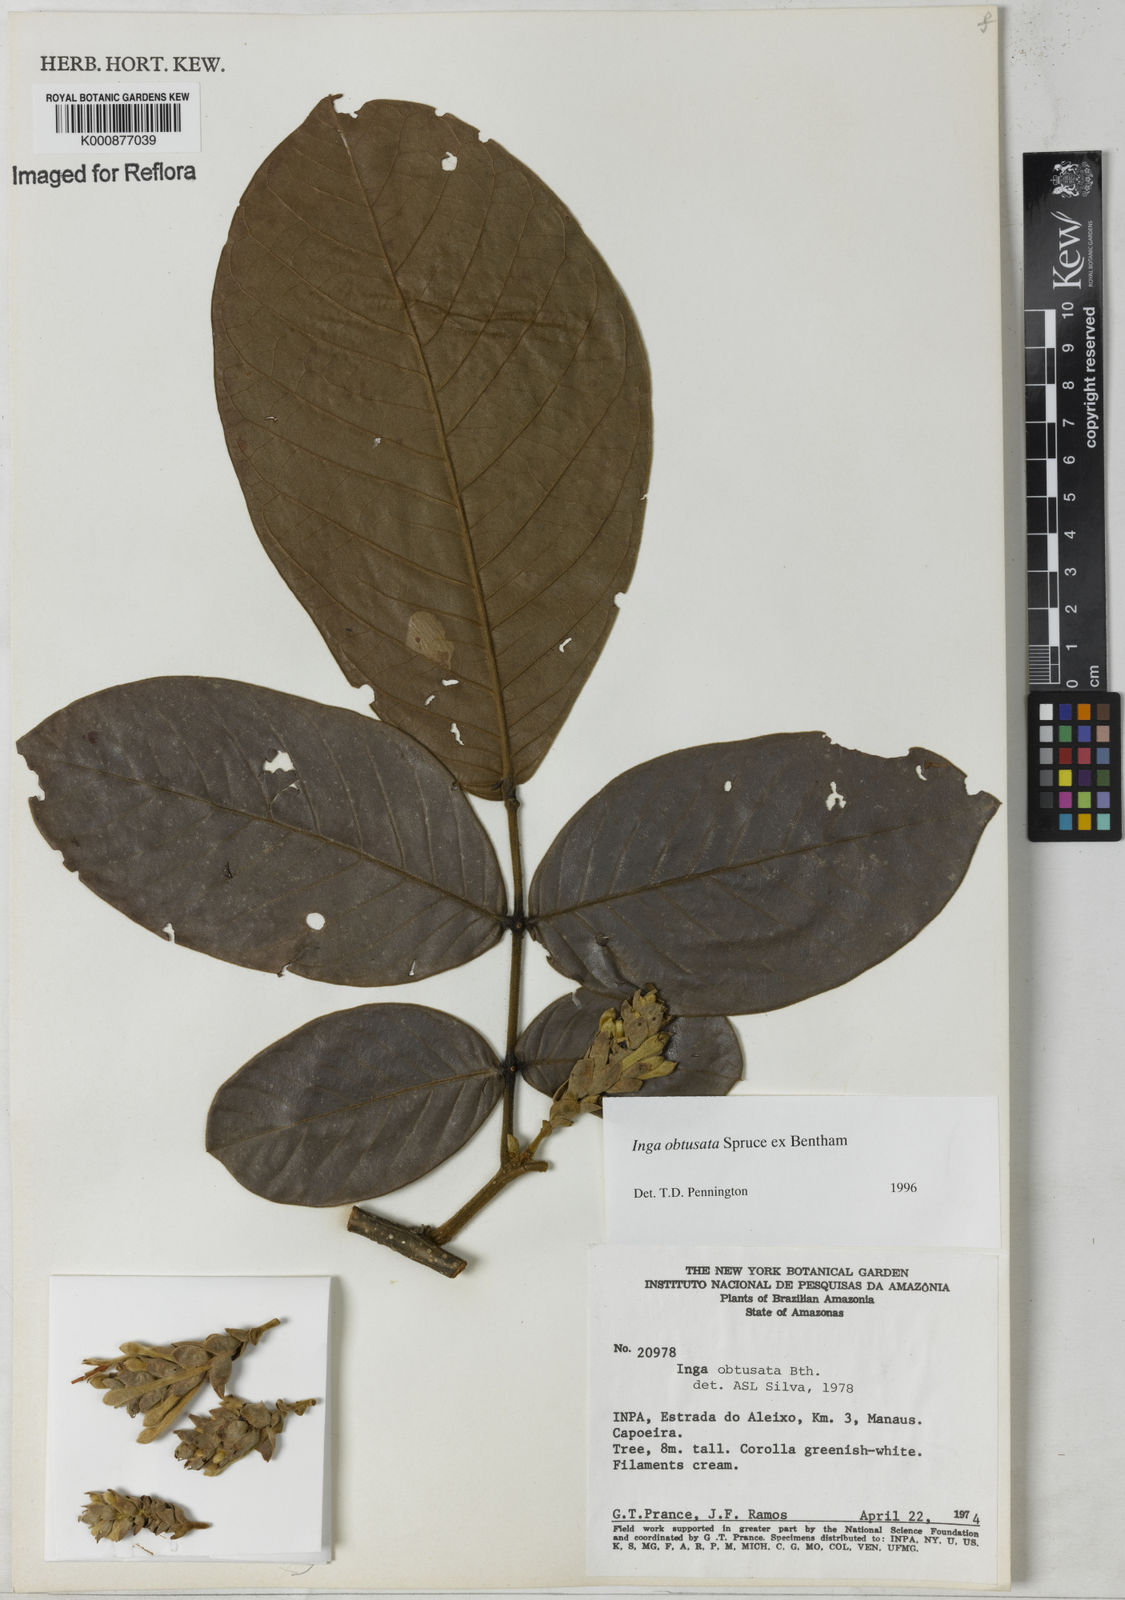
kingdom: Plantae
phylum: Tracheophyta
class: Magnoliopsida
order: Fabales
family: Fabaceae
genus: Inga
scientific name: Inga obtusata
